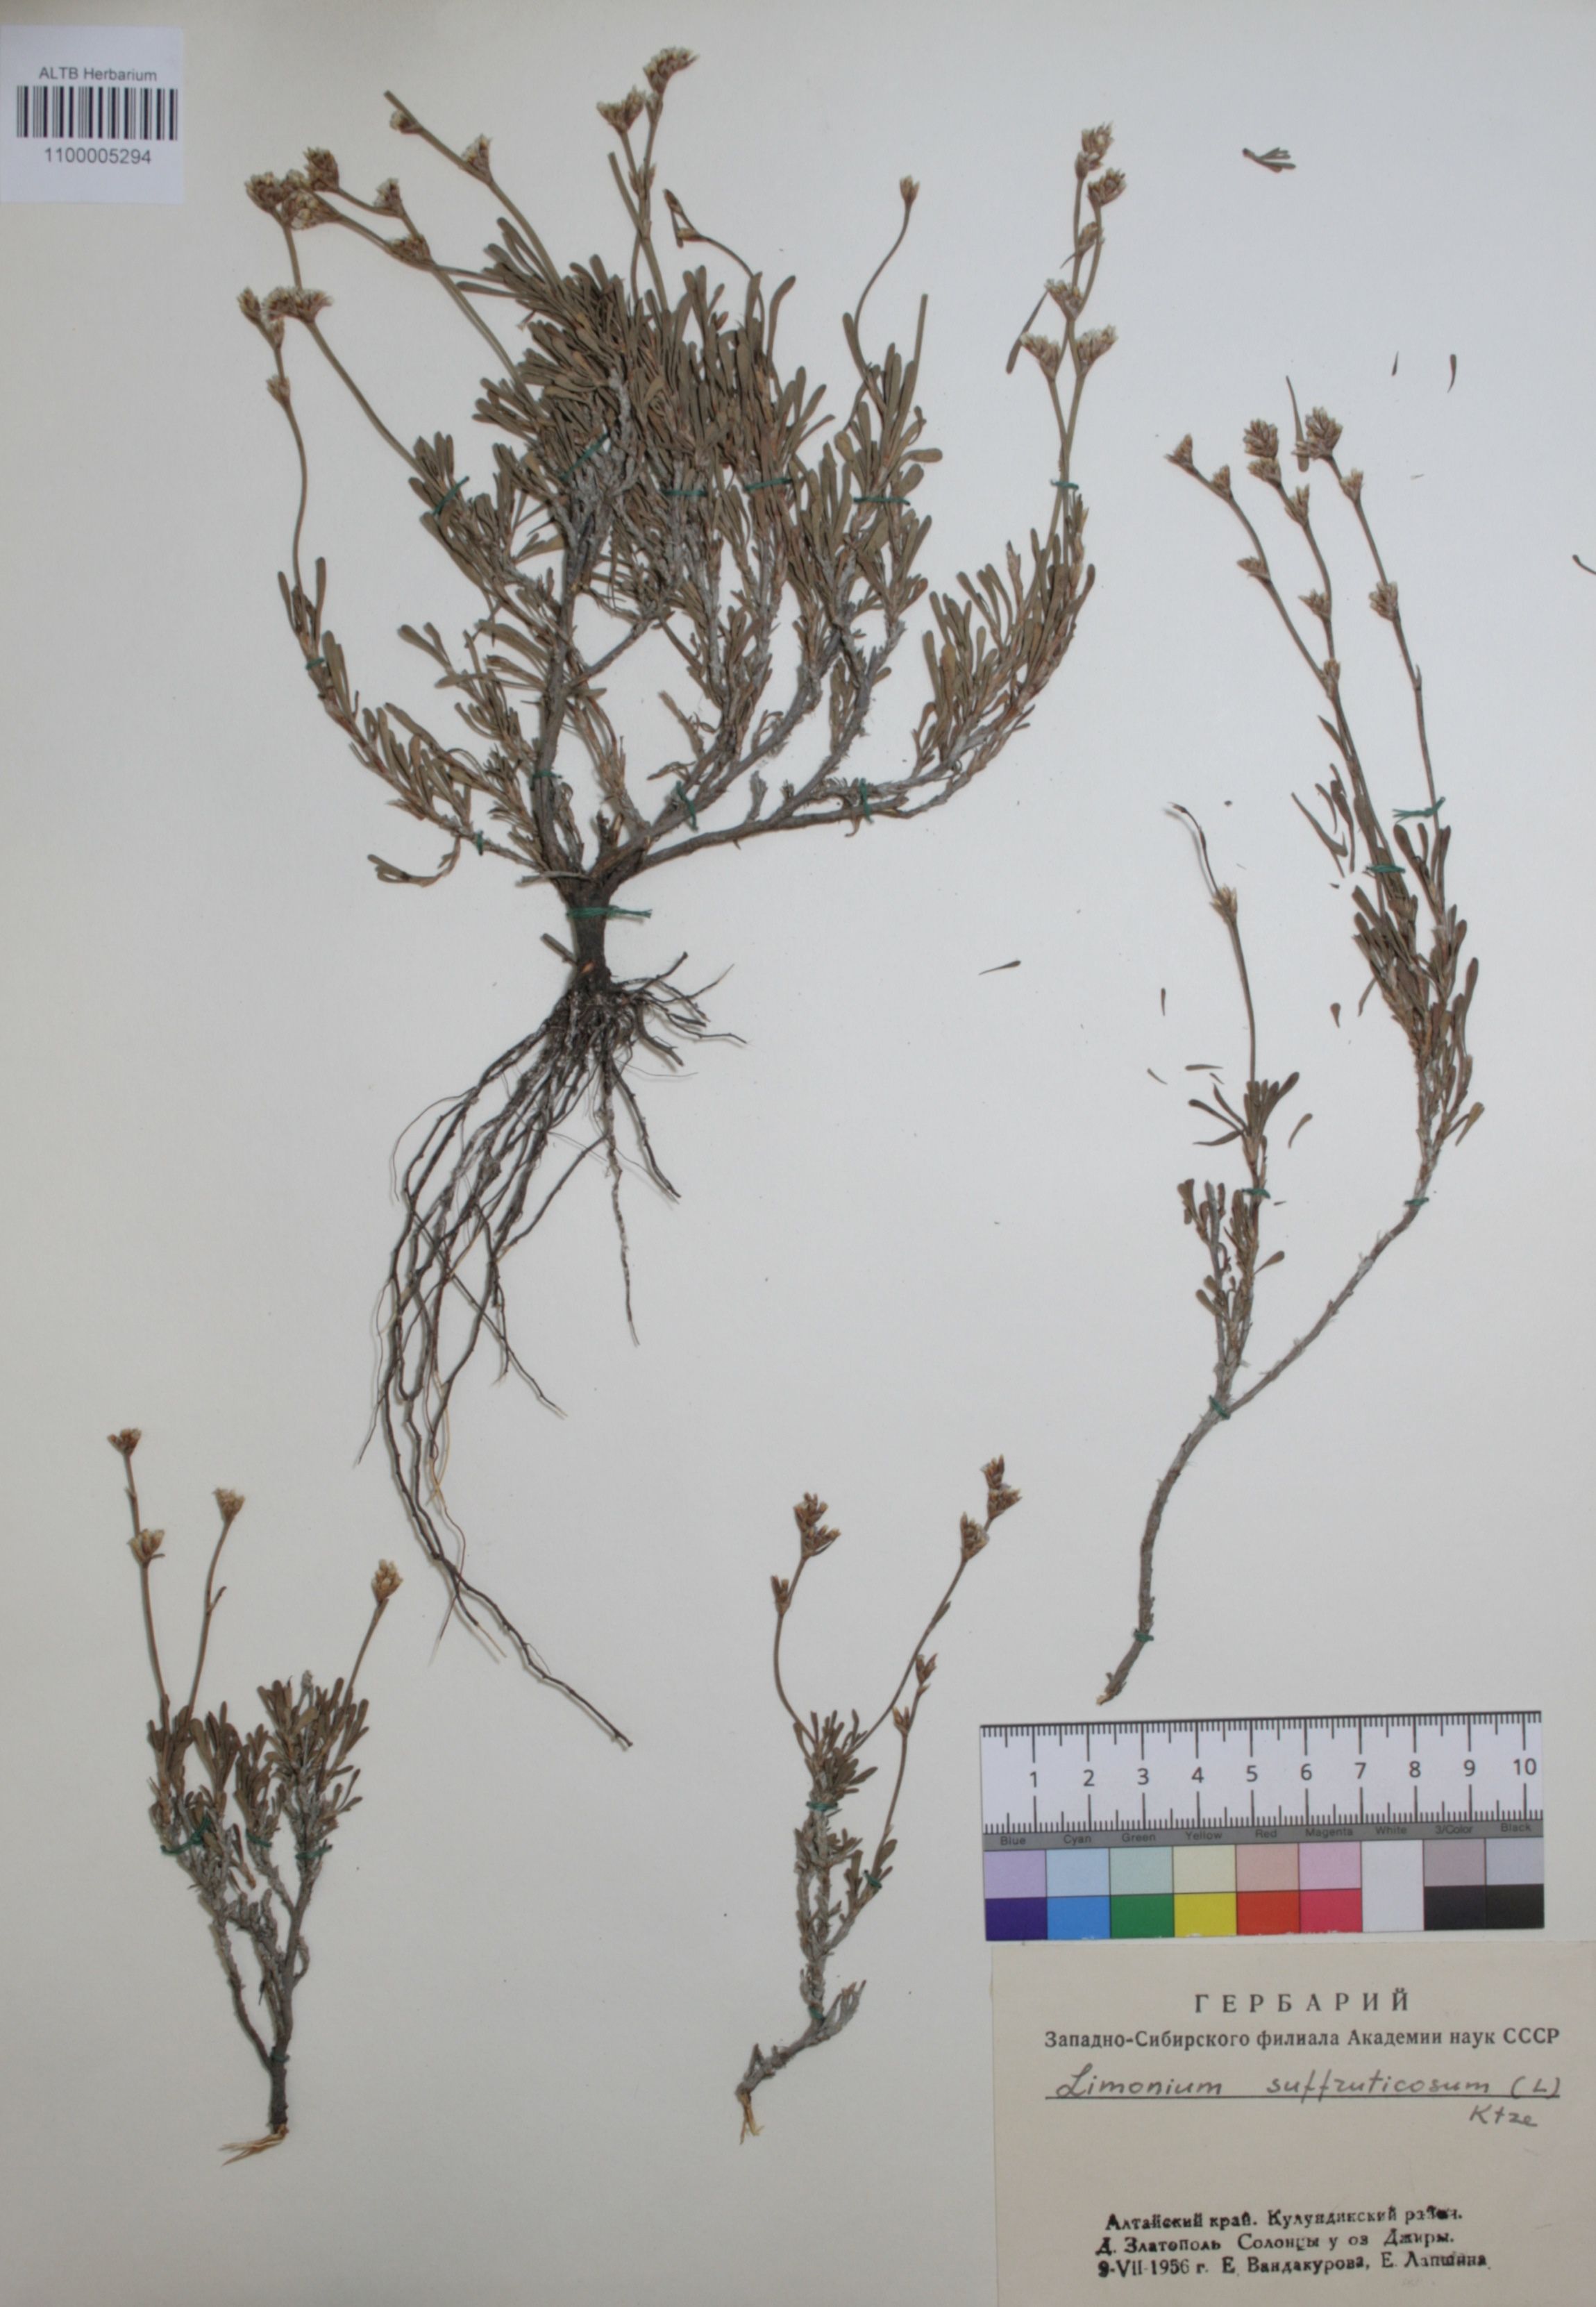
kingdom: Plantae
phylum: Tracheophyta
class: Magnoliopsida
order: Caryophyllales
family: Plumbaginaceae
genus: Limonium
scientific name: Limonium suffruticosum
